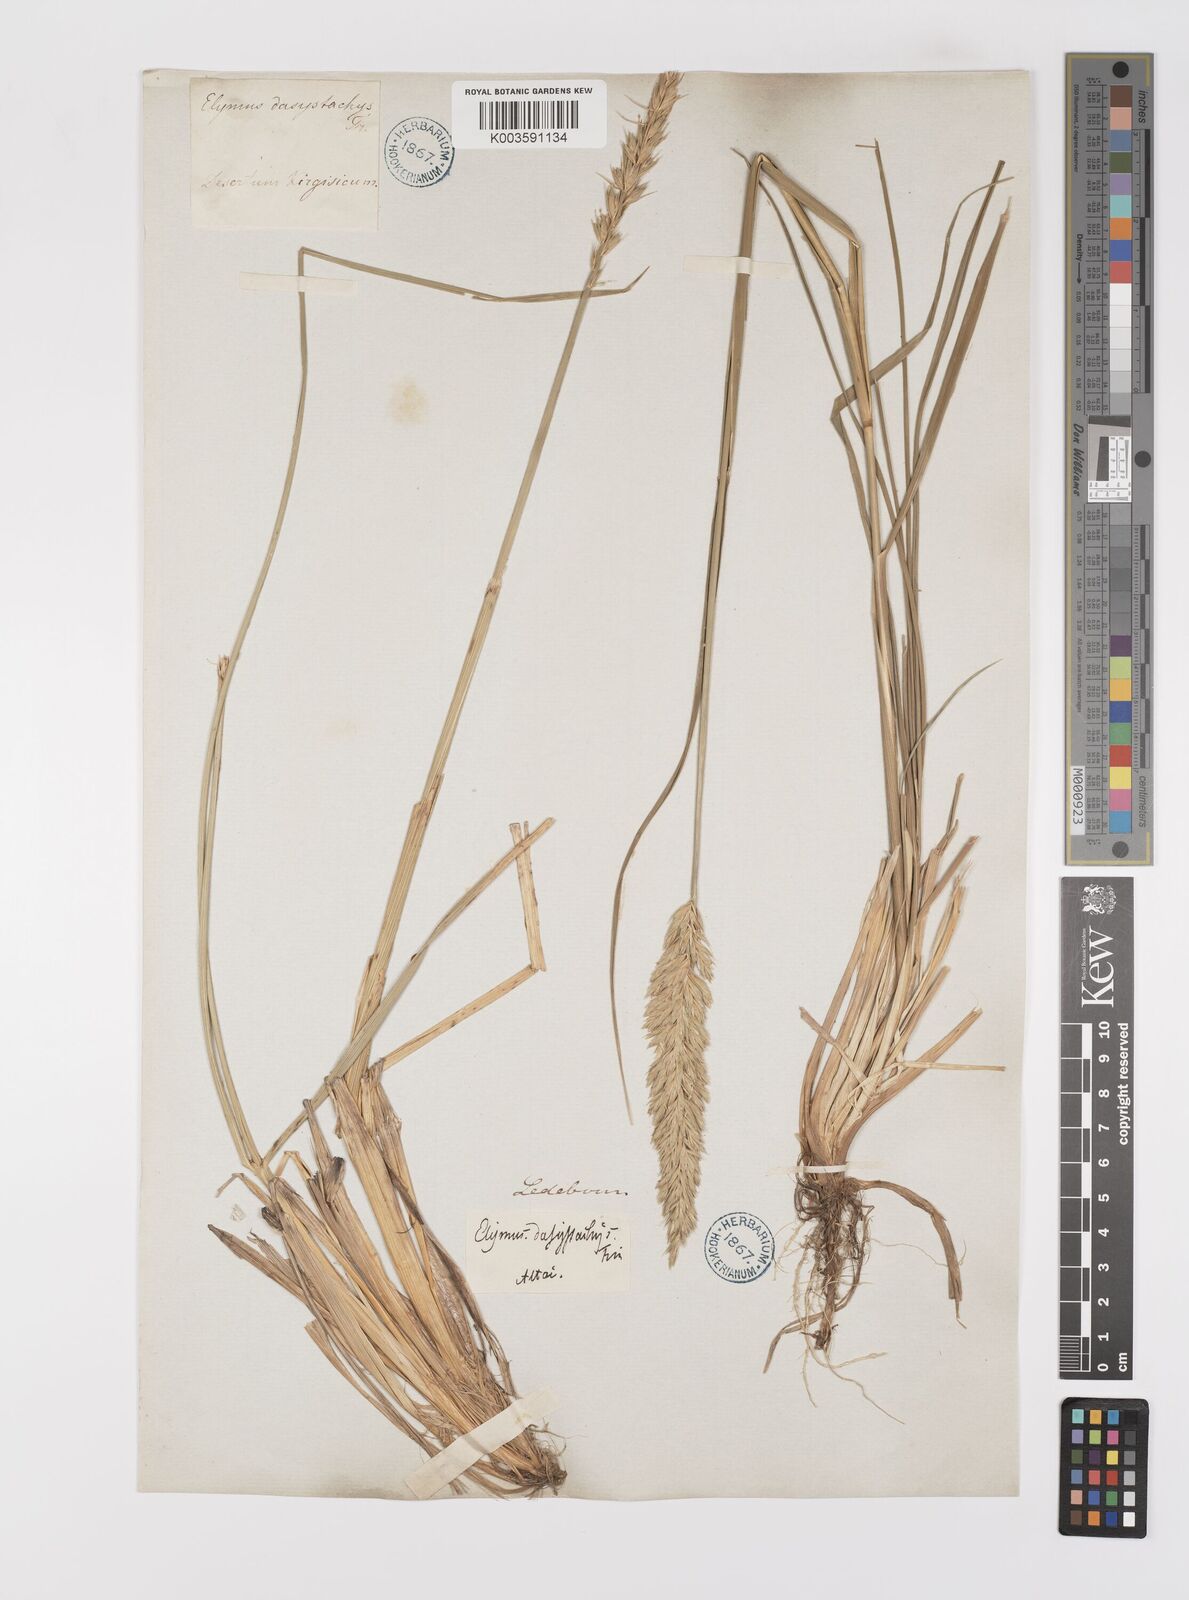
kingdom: Plantae
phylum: Tracheophyta
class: Liliopsida
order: Poales
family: Poaceae
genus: Leymus
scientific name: Leymus secalinus
